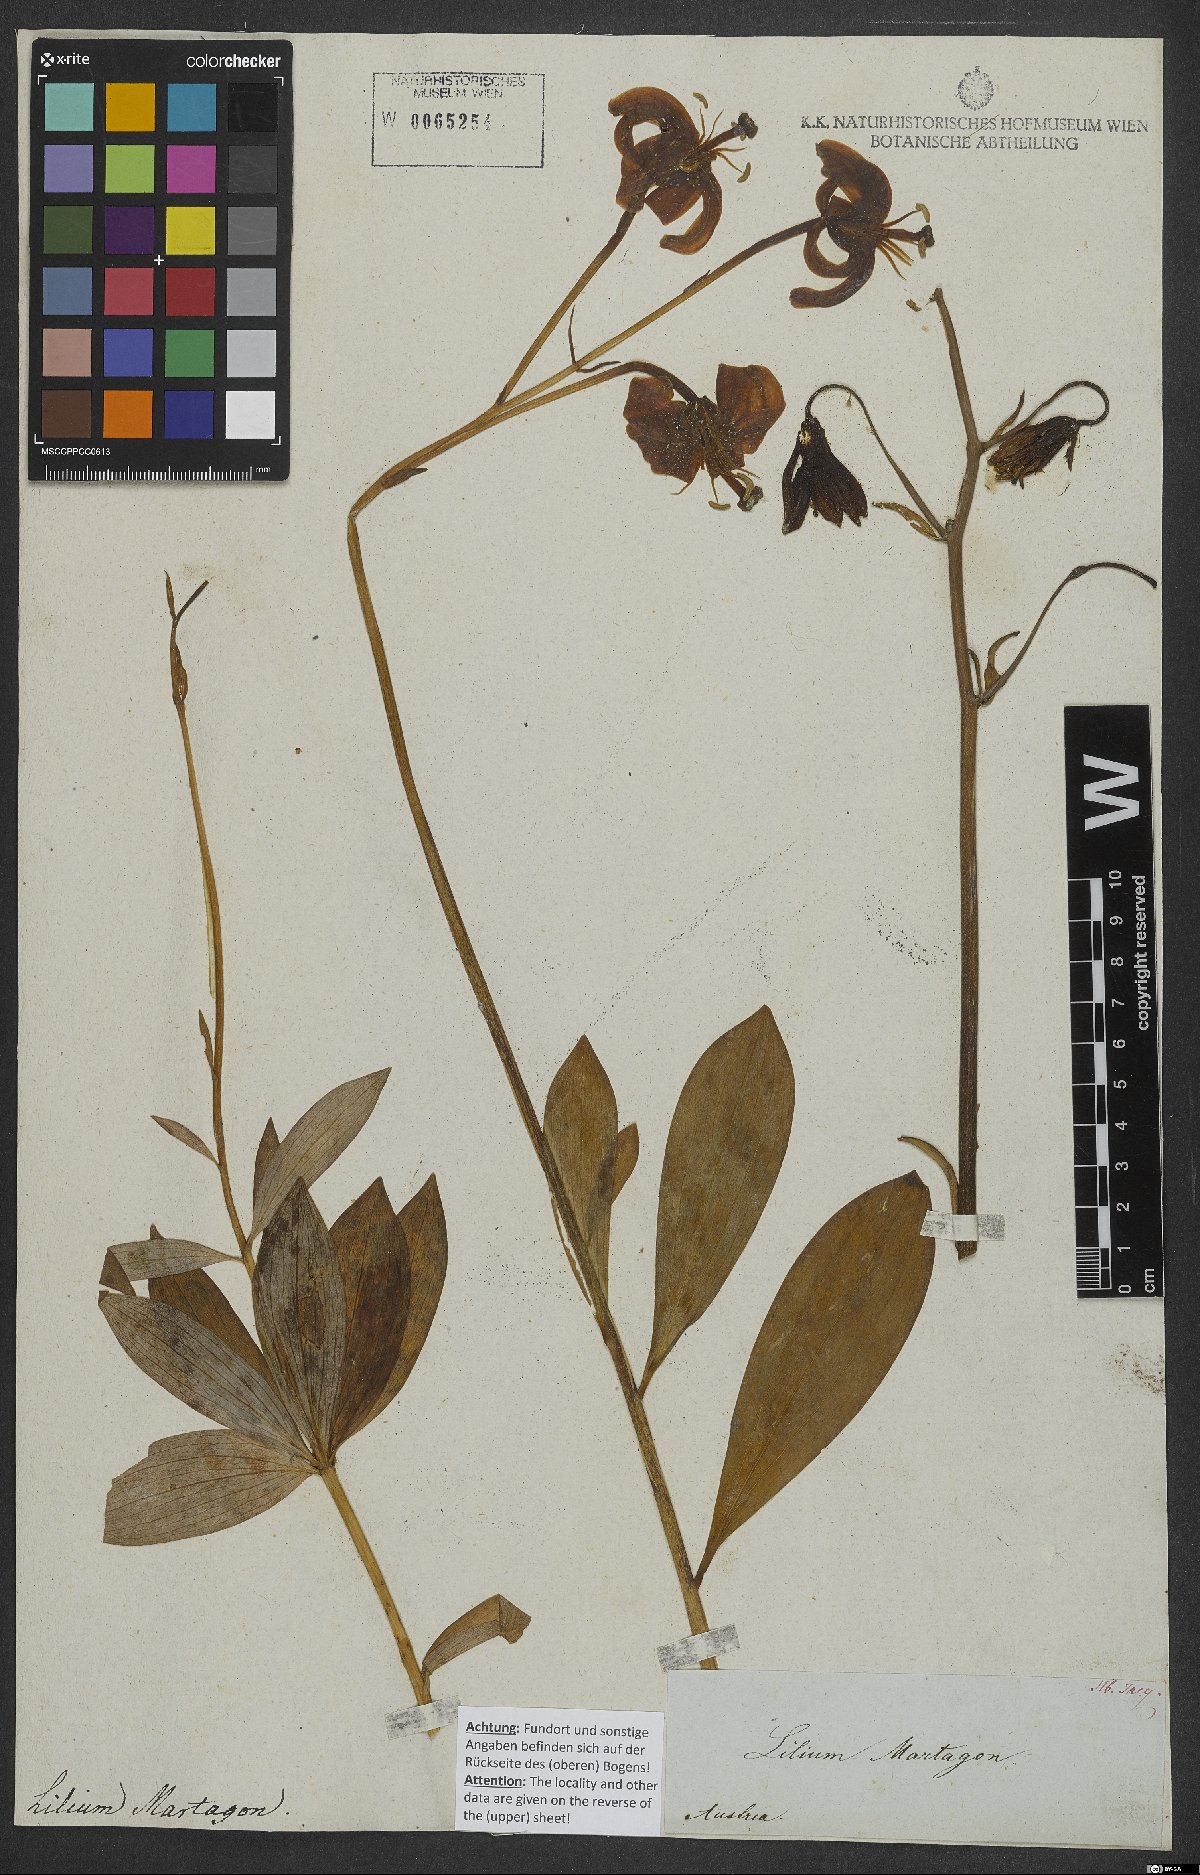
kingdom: Plantae
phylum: Tracheophyta
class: Liliopsida
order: Liliales
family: Liliaceae
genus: Lilium
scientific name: Lilium martagon
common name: Martagon lily
